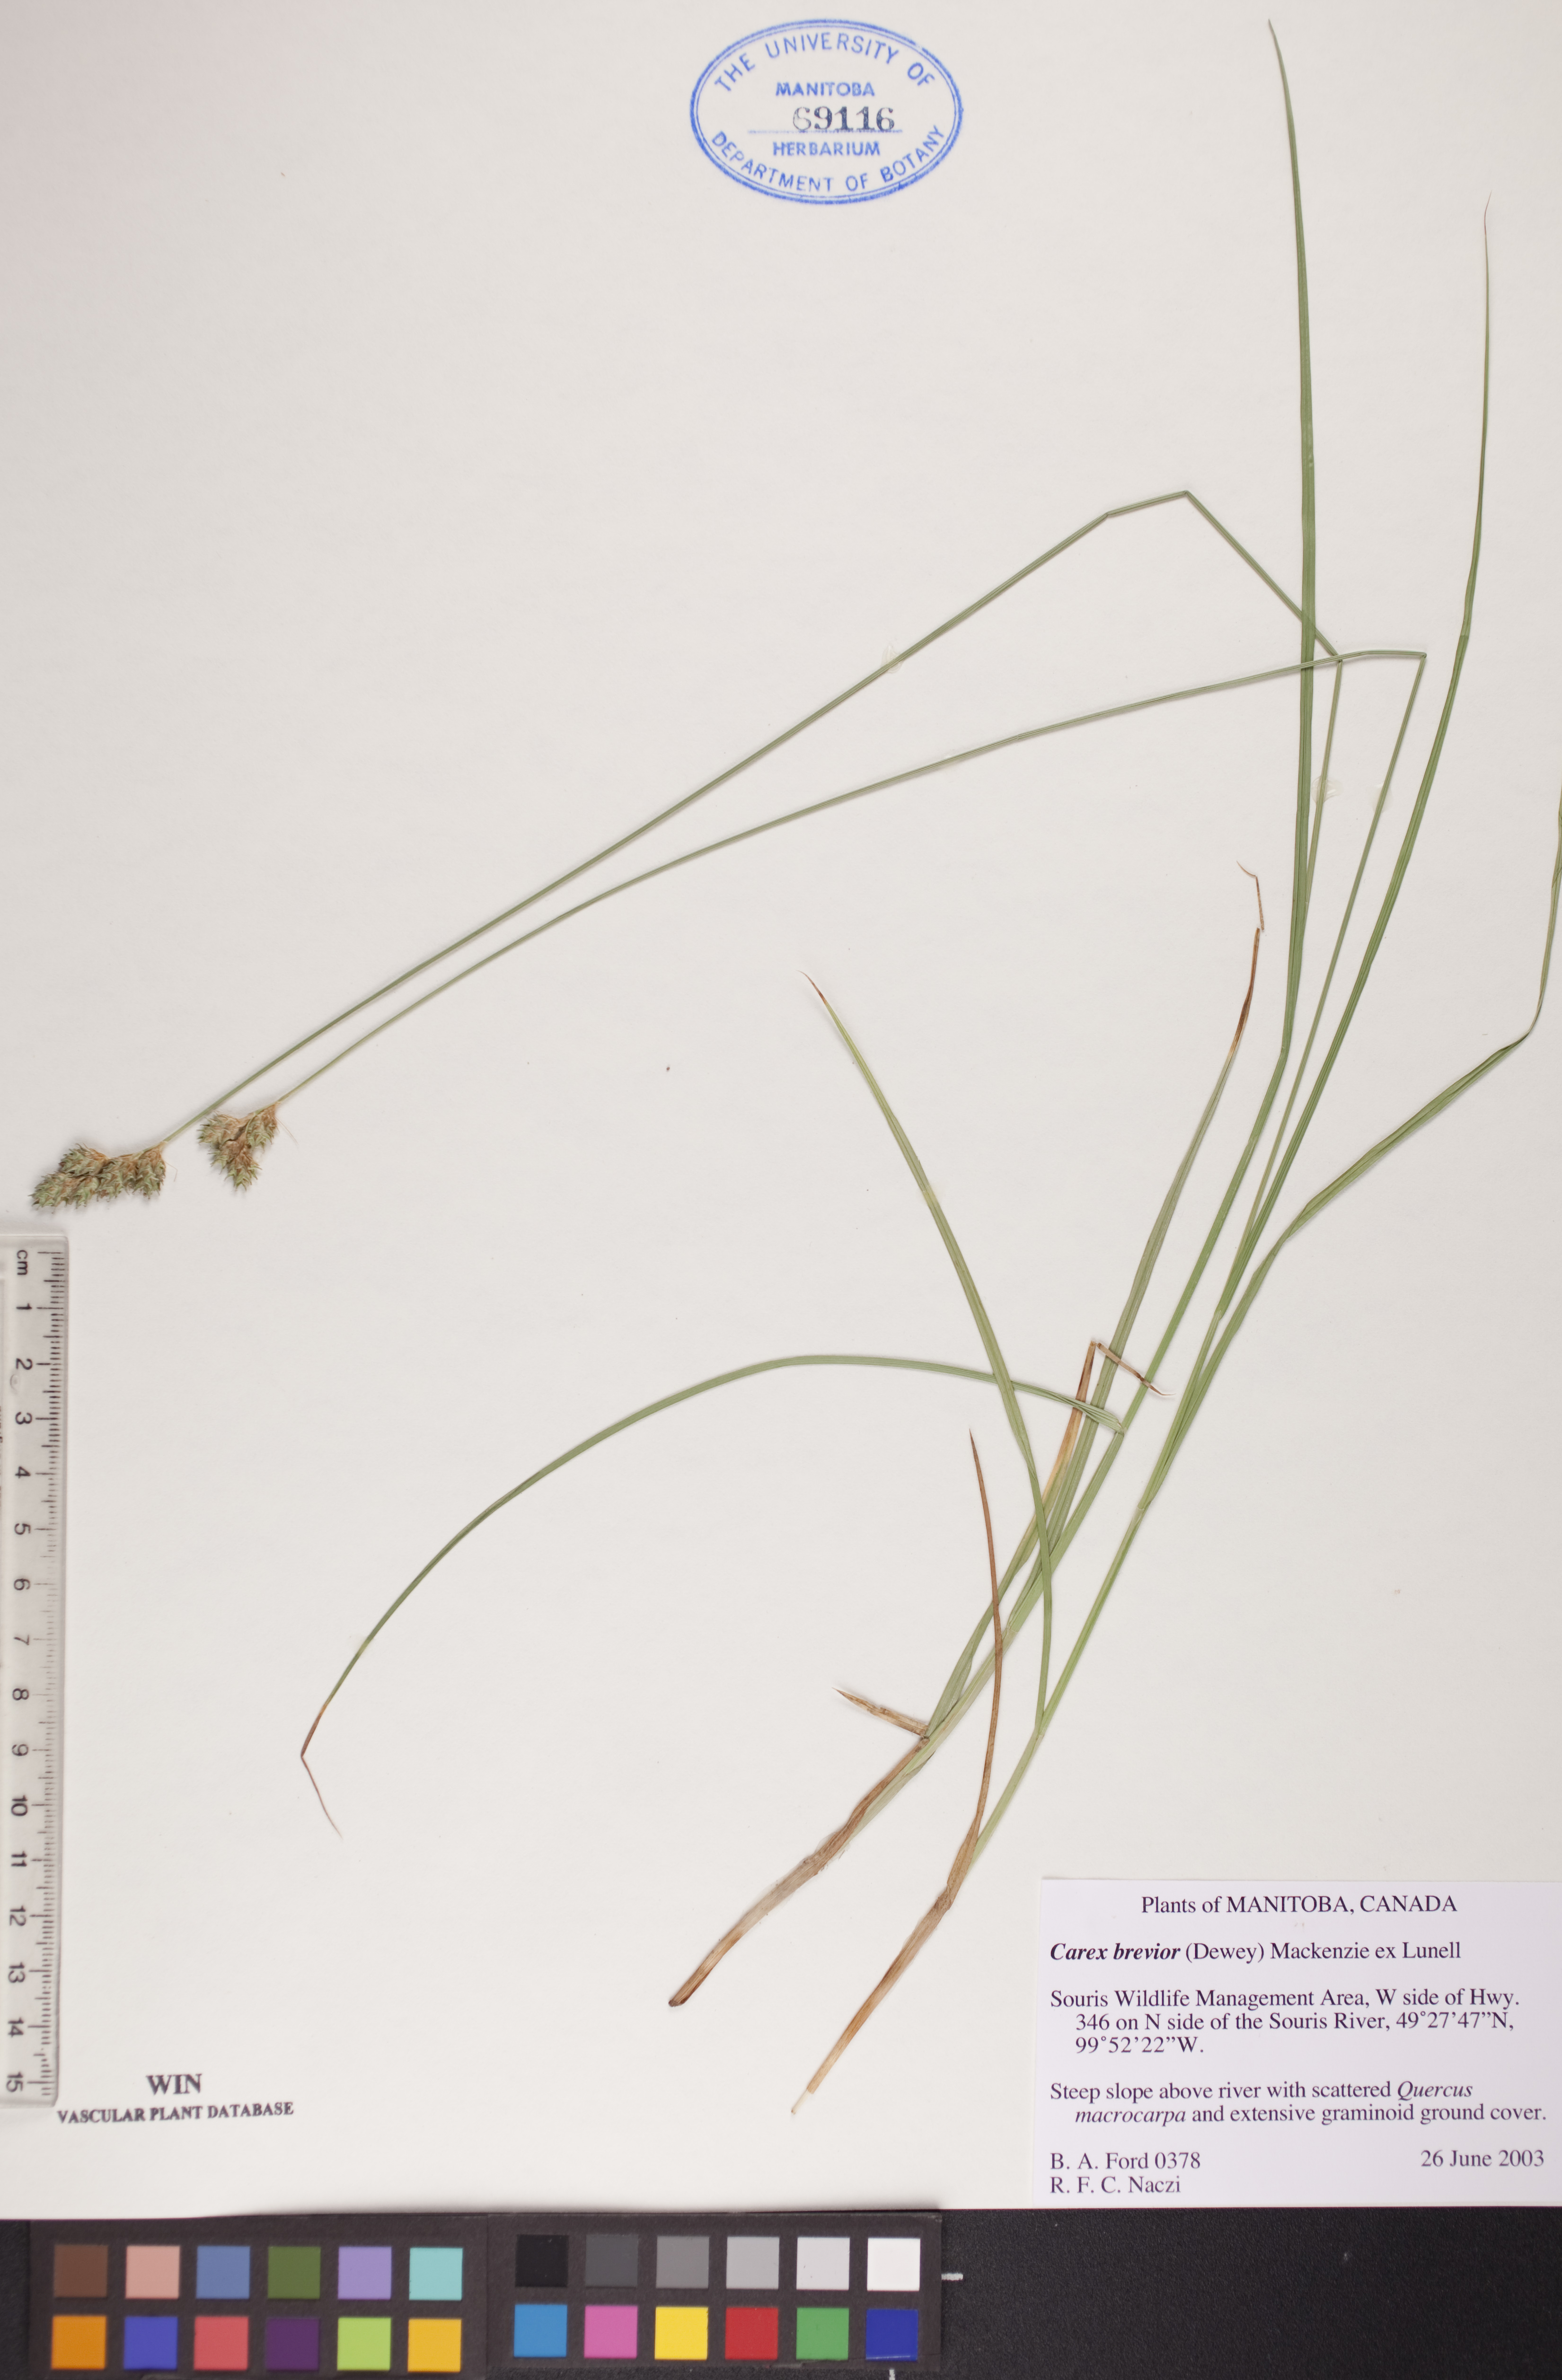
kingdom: Plantae
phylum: Tracheophyta
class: Liliopsida
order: Poales
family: Cyperaceae
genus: Carex
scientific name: Carex brevior
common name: Brevior sedge
